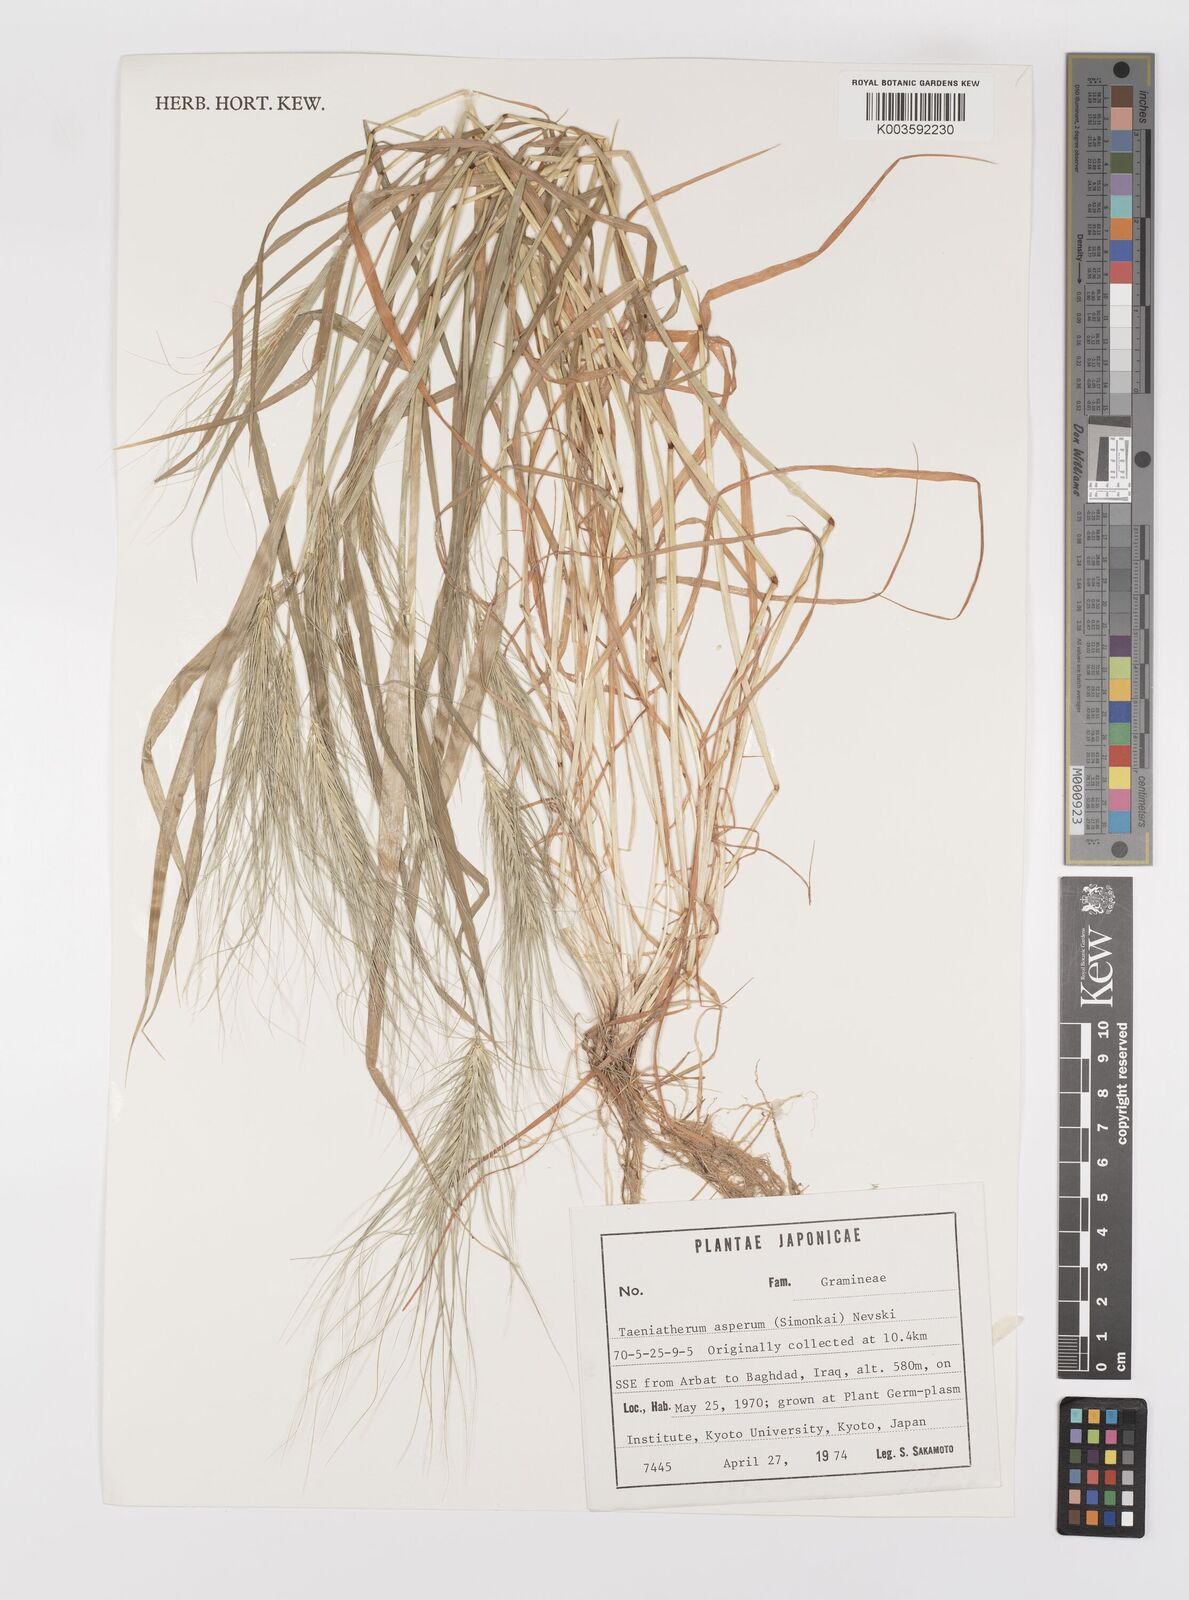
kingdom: Plantae
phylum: Tracheophyta
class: Liliopsida
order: Poales
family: Poaceae
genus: Taeniatherum
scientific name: Taeniatherum caput-medusae
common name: Medusahead
